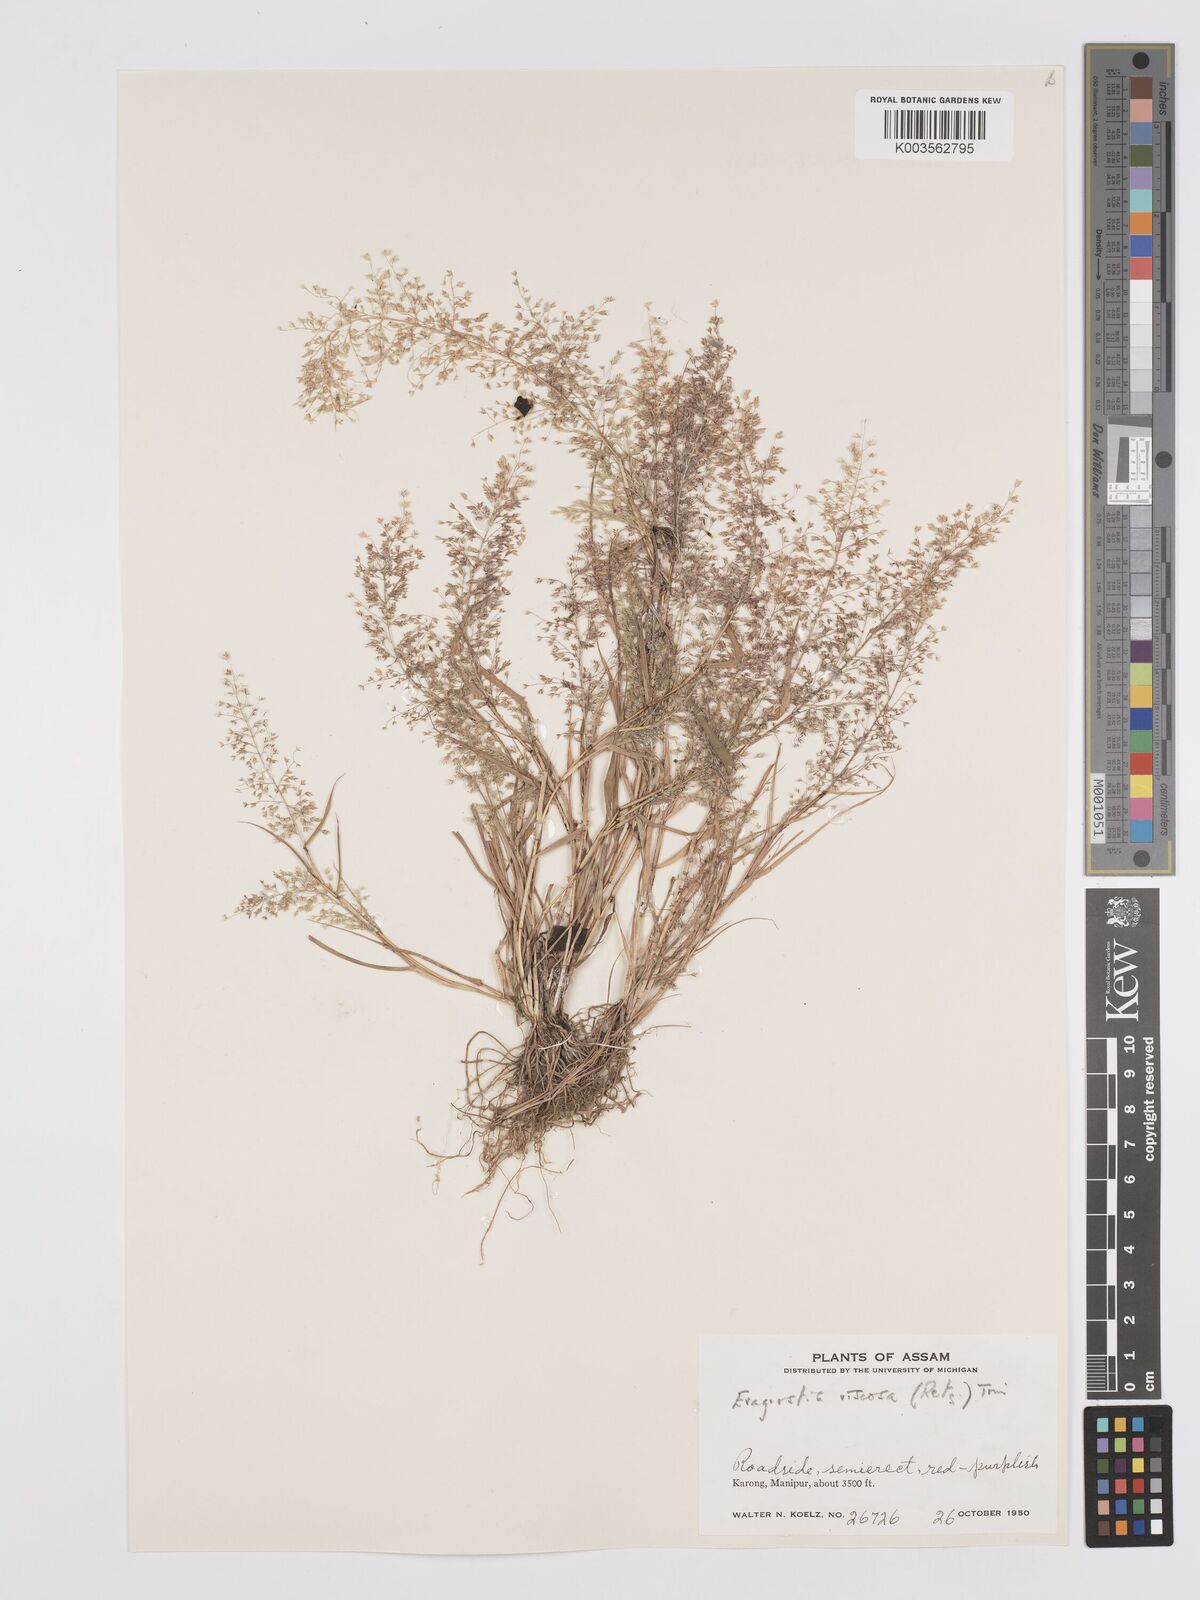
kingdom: Plantae
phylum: Tracheophyta
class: Liliopsida
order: Poales
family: Poaceae
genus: Eragrostis
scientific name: Eragrostis viscosa
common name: Sticky love grass
